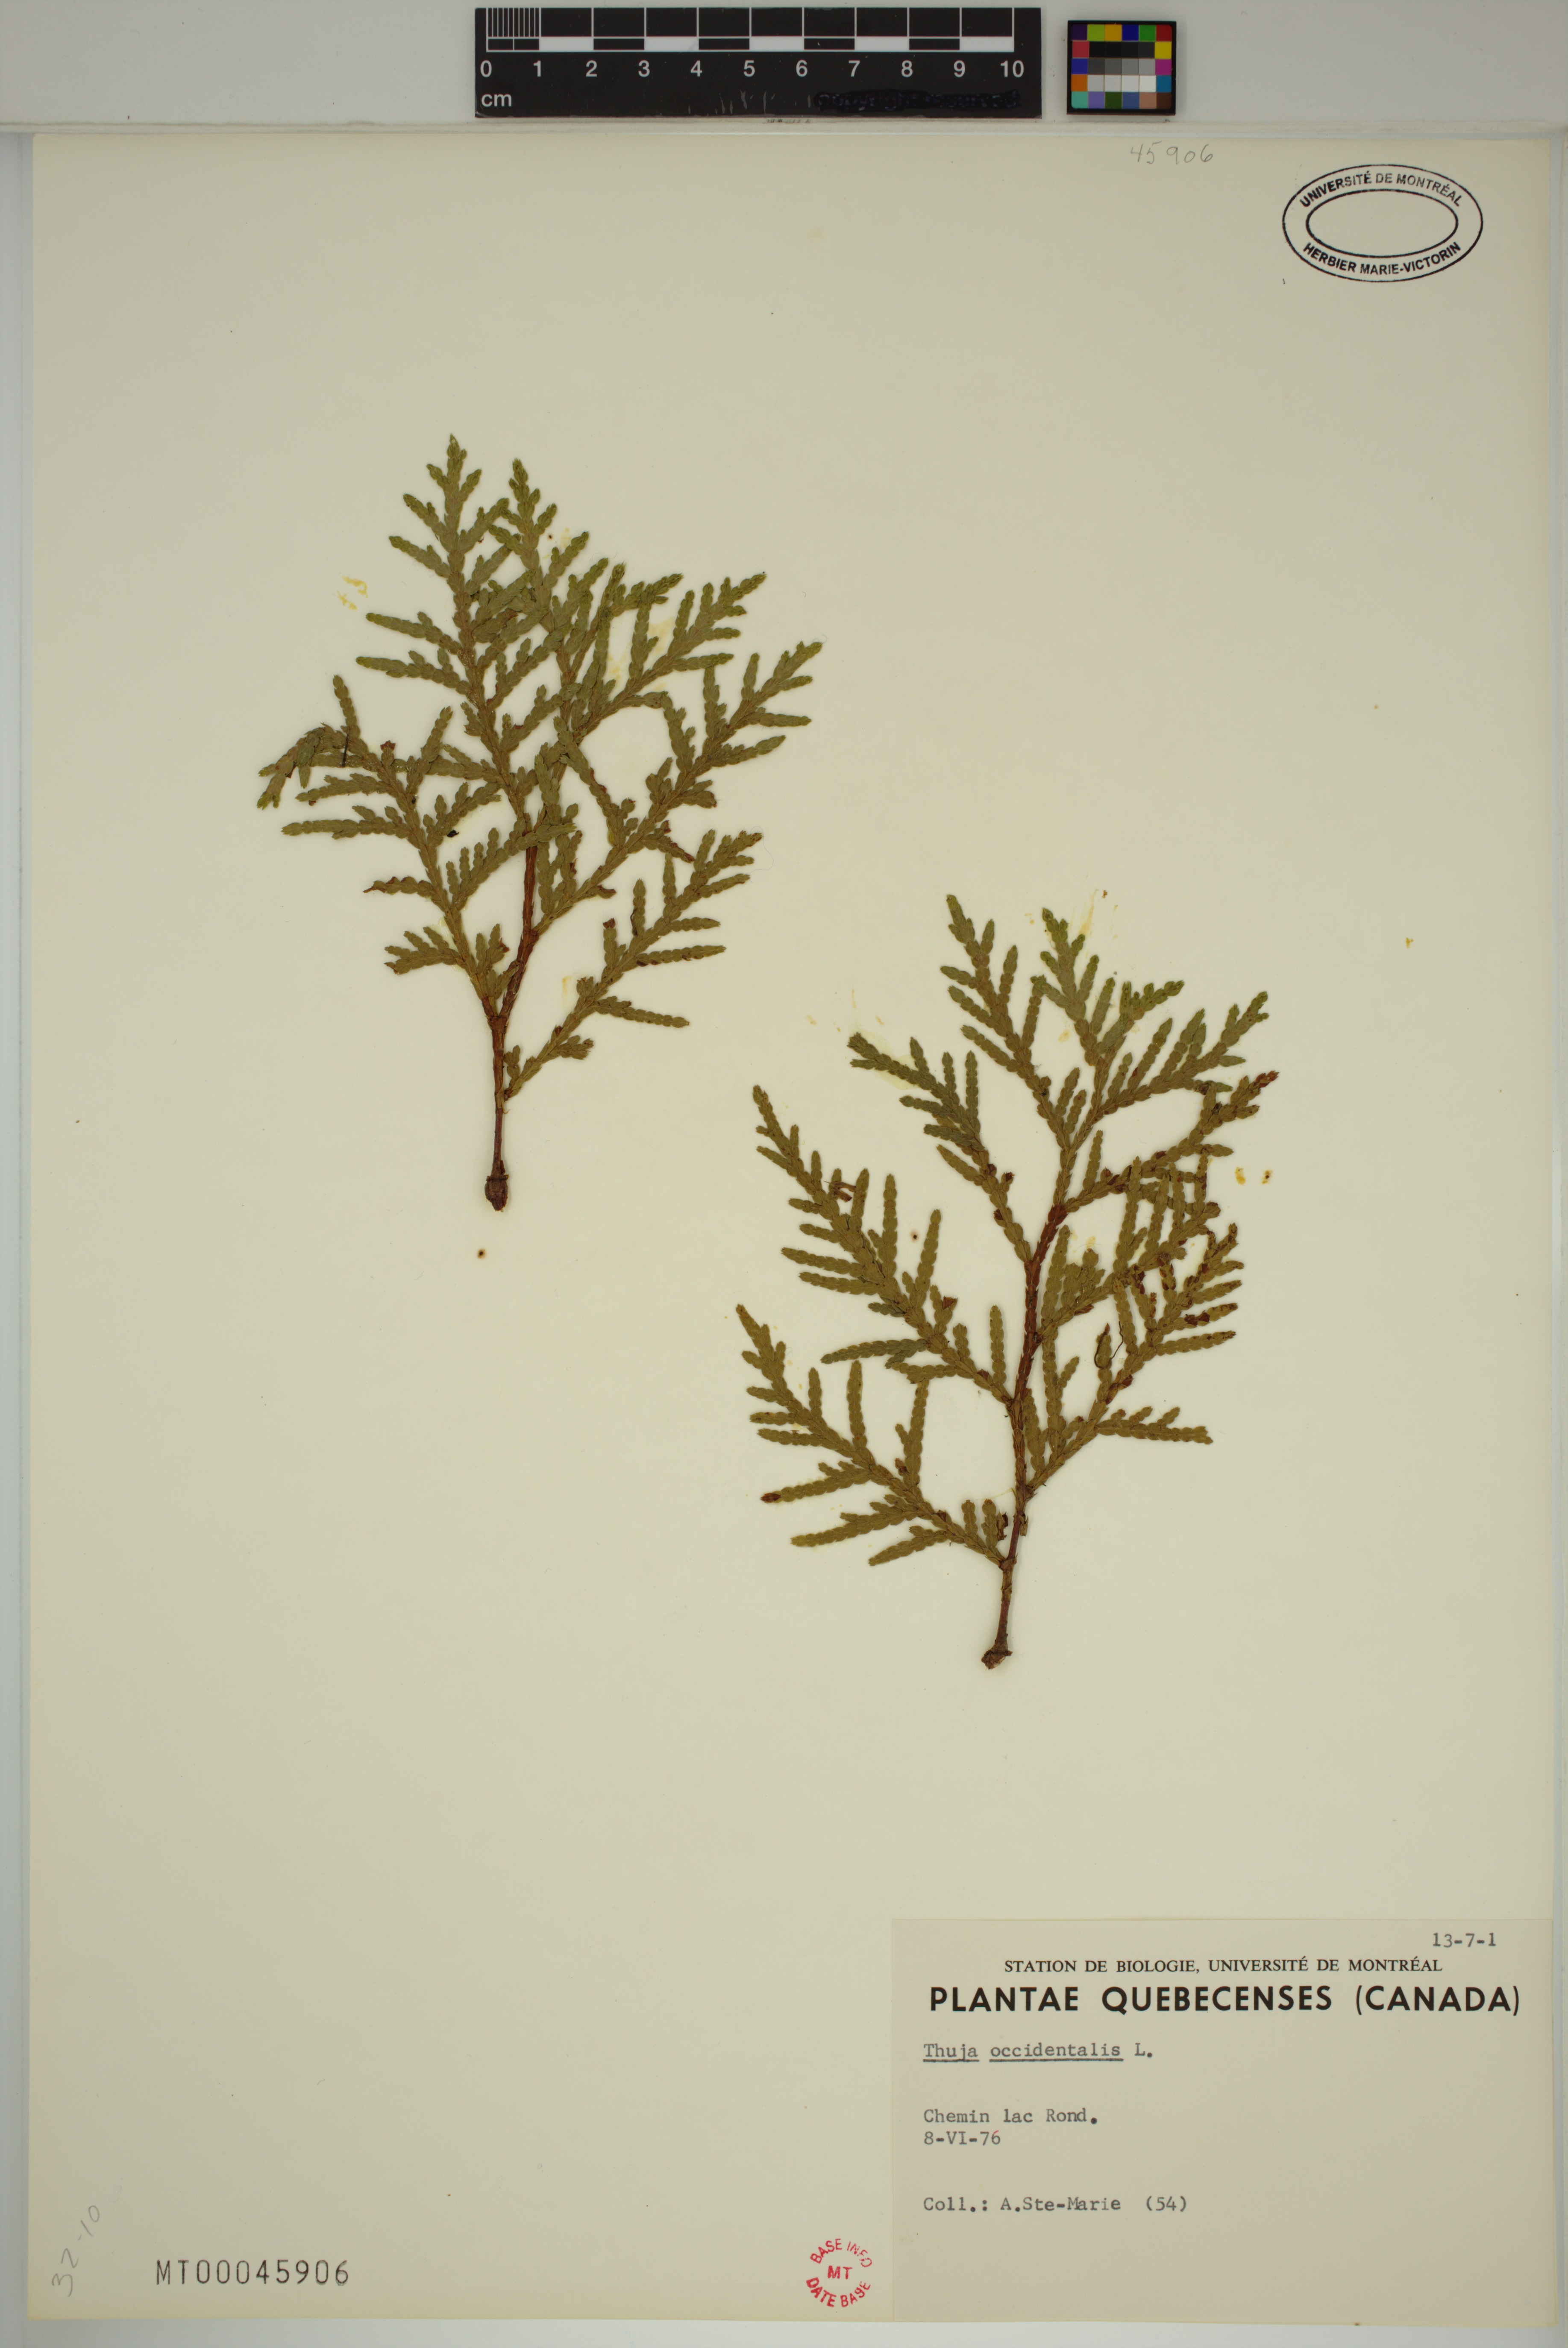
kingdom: Plantae
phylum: Tracheophyta
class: Pinopsida
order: Pinales
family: Cupressaceae
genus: Thuja
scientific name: Thuja occidentalis
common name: Northern white-cedar
